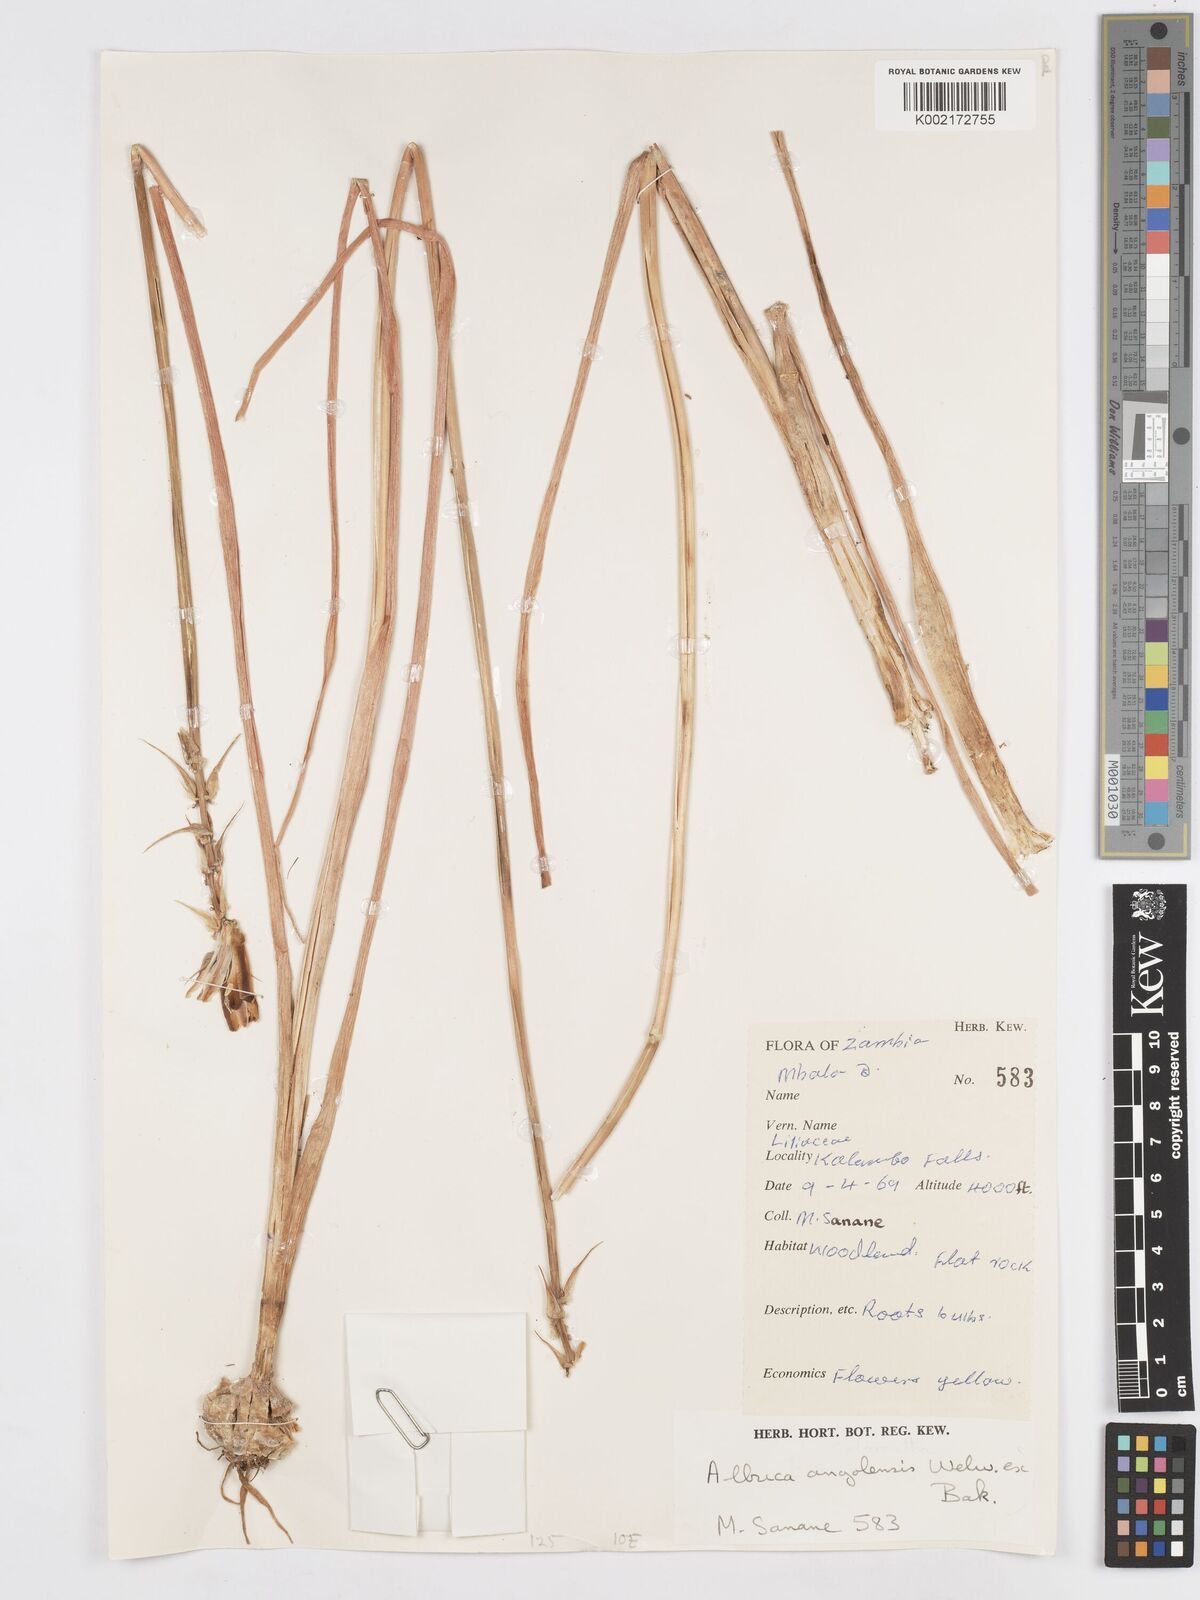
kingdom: Plantae
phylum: Tracheophyta
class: Liliopsida
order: Asparagales
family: Asparagaceae
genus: Albuca
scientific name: Albuca abyssinica
